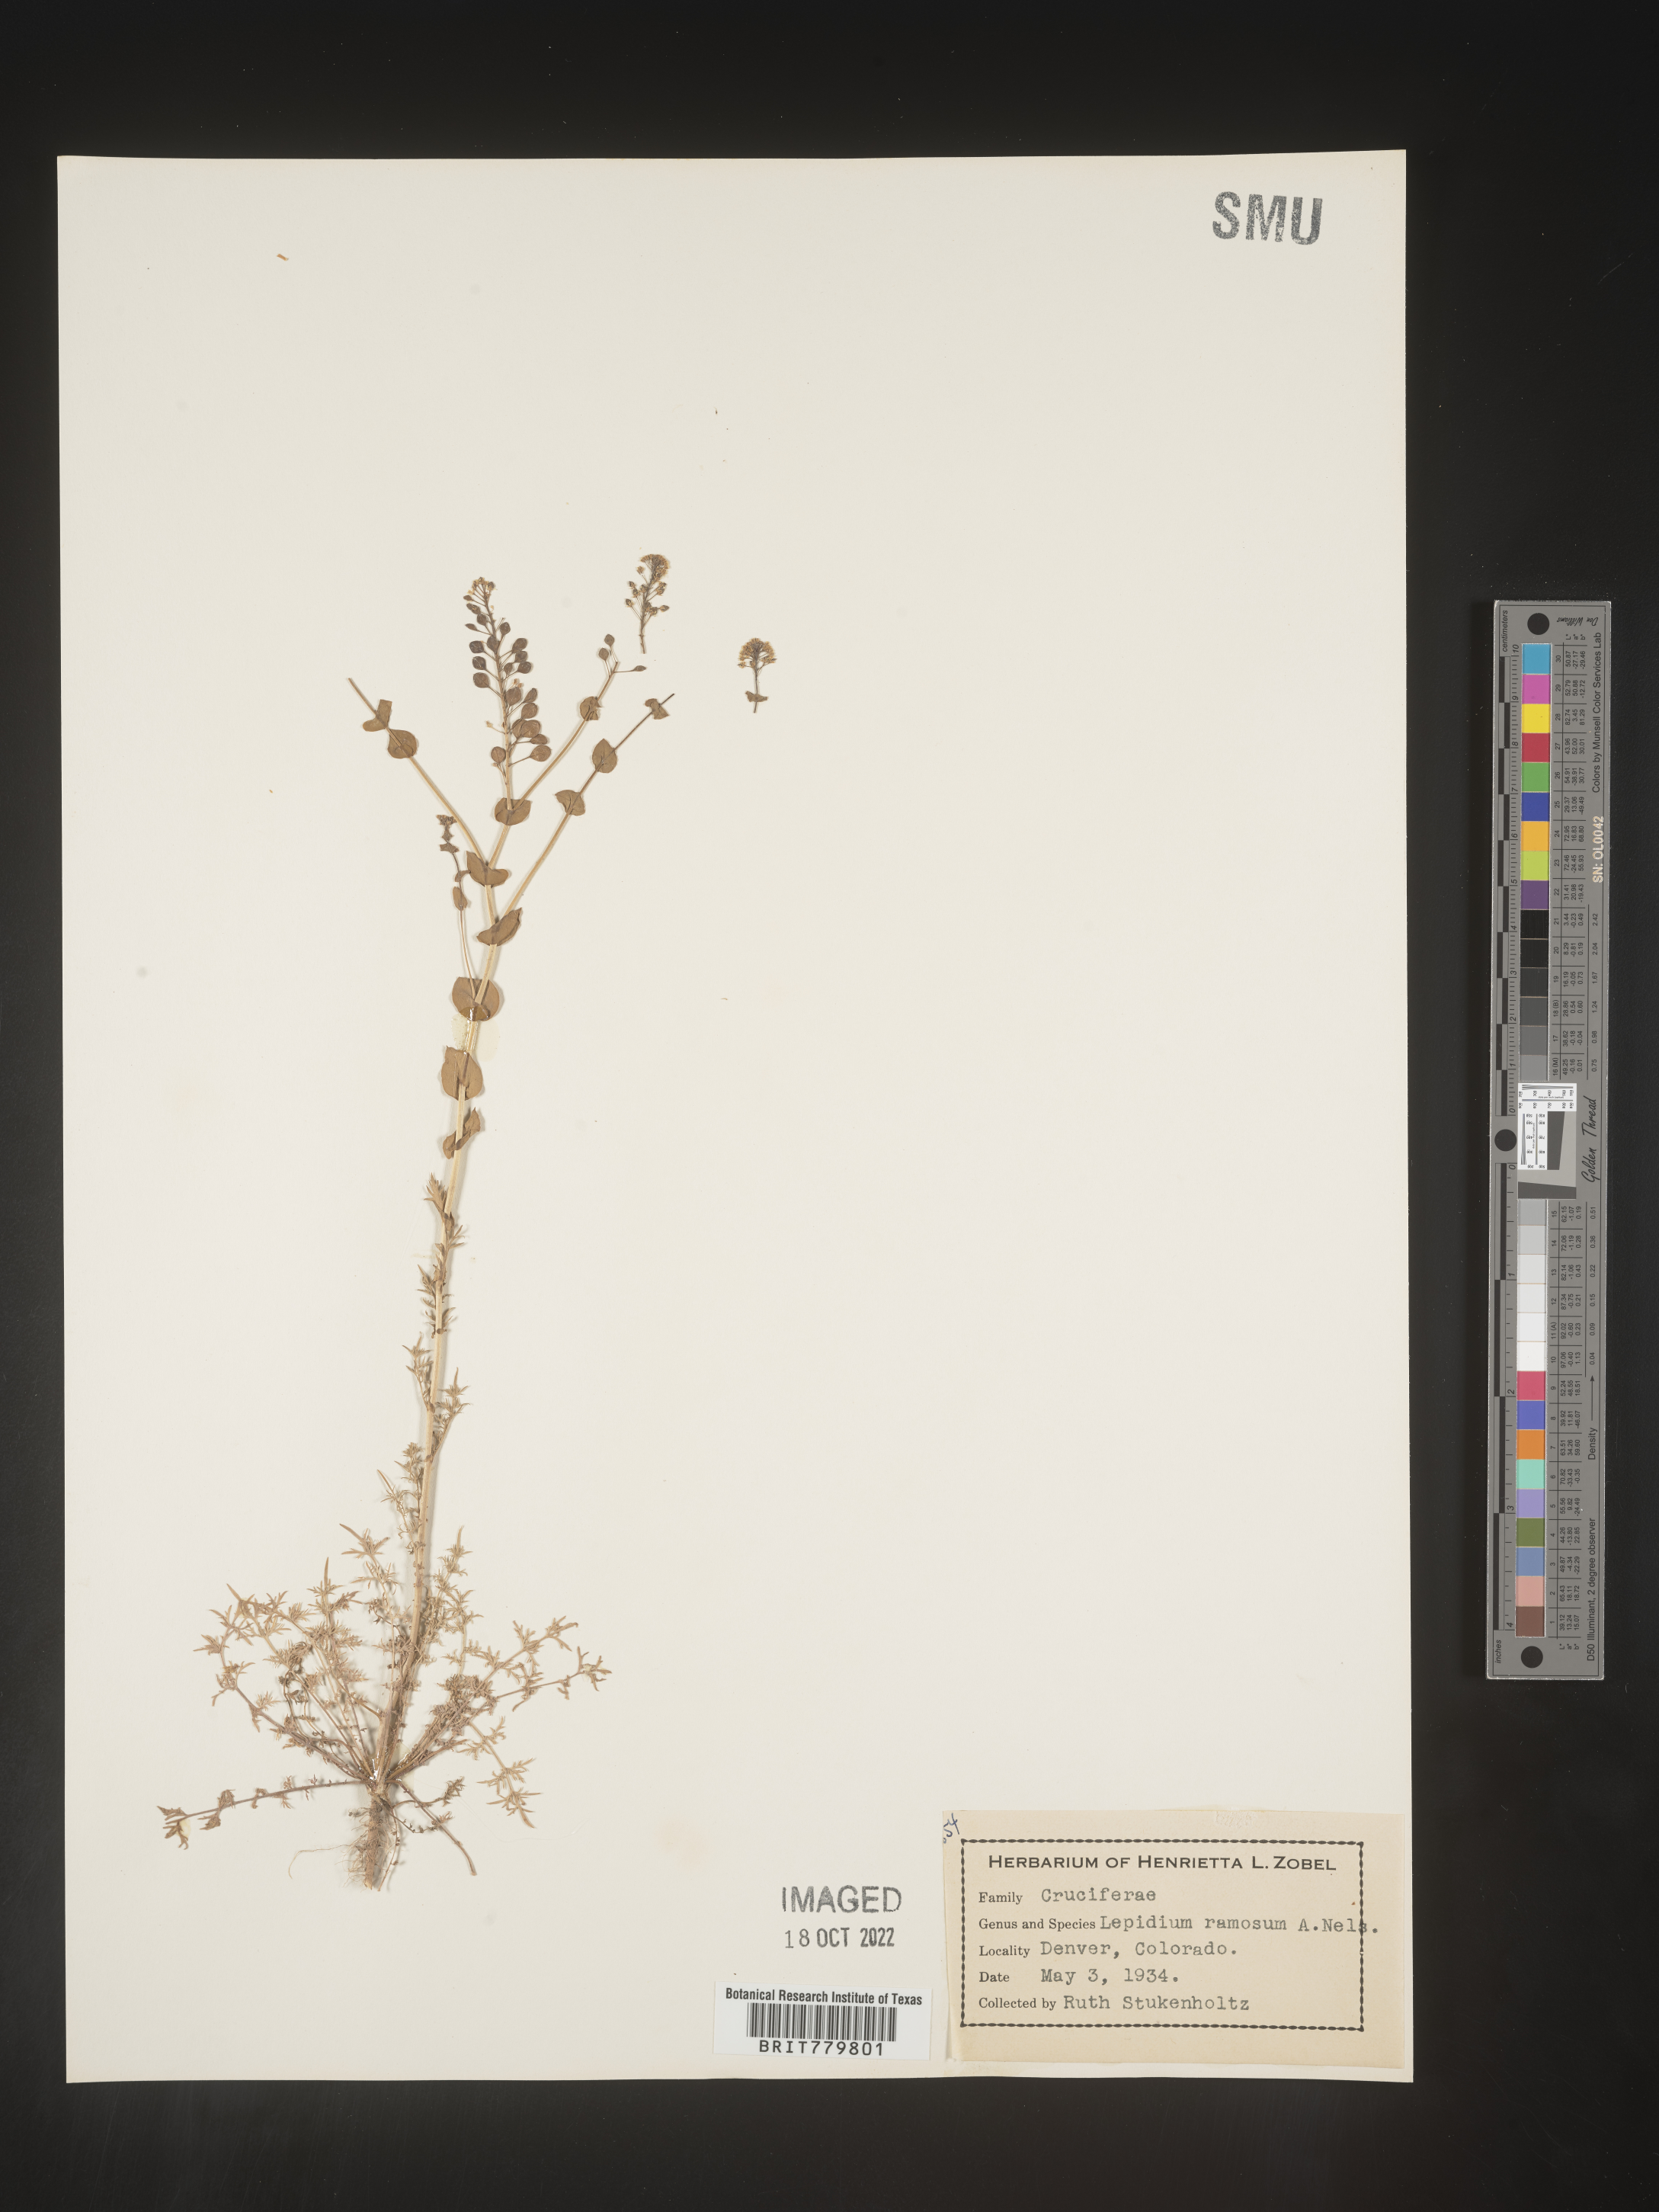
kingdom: Plantae
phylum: Tracheophyta
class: Magnoliopsida
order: Brassicales
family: Brassicaceae
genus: Lepidium
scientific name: Lepidium
